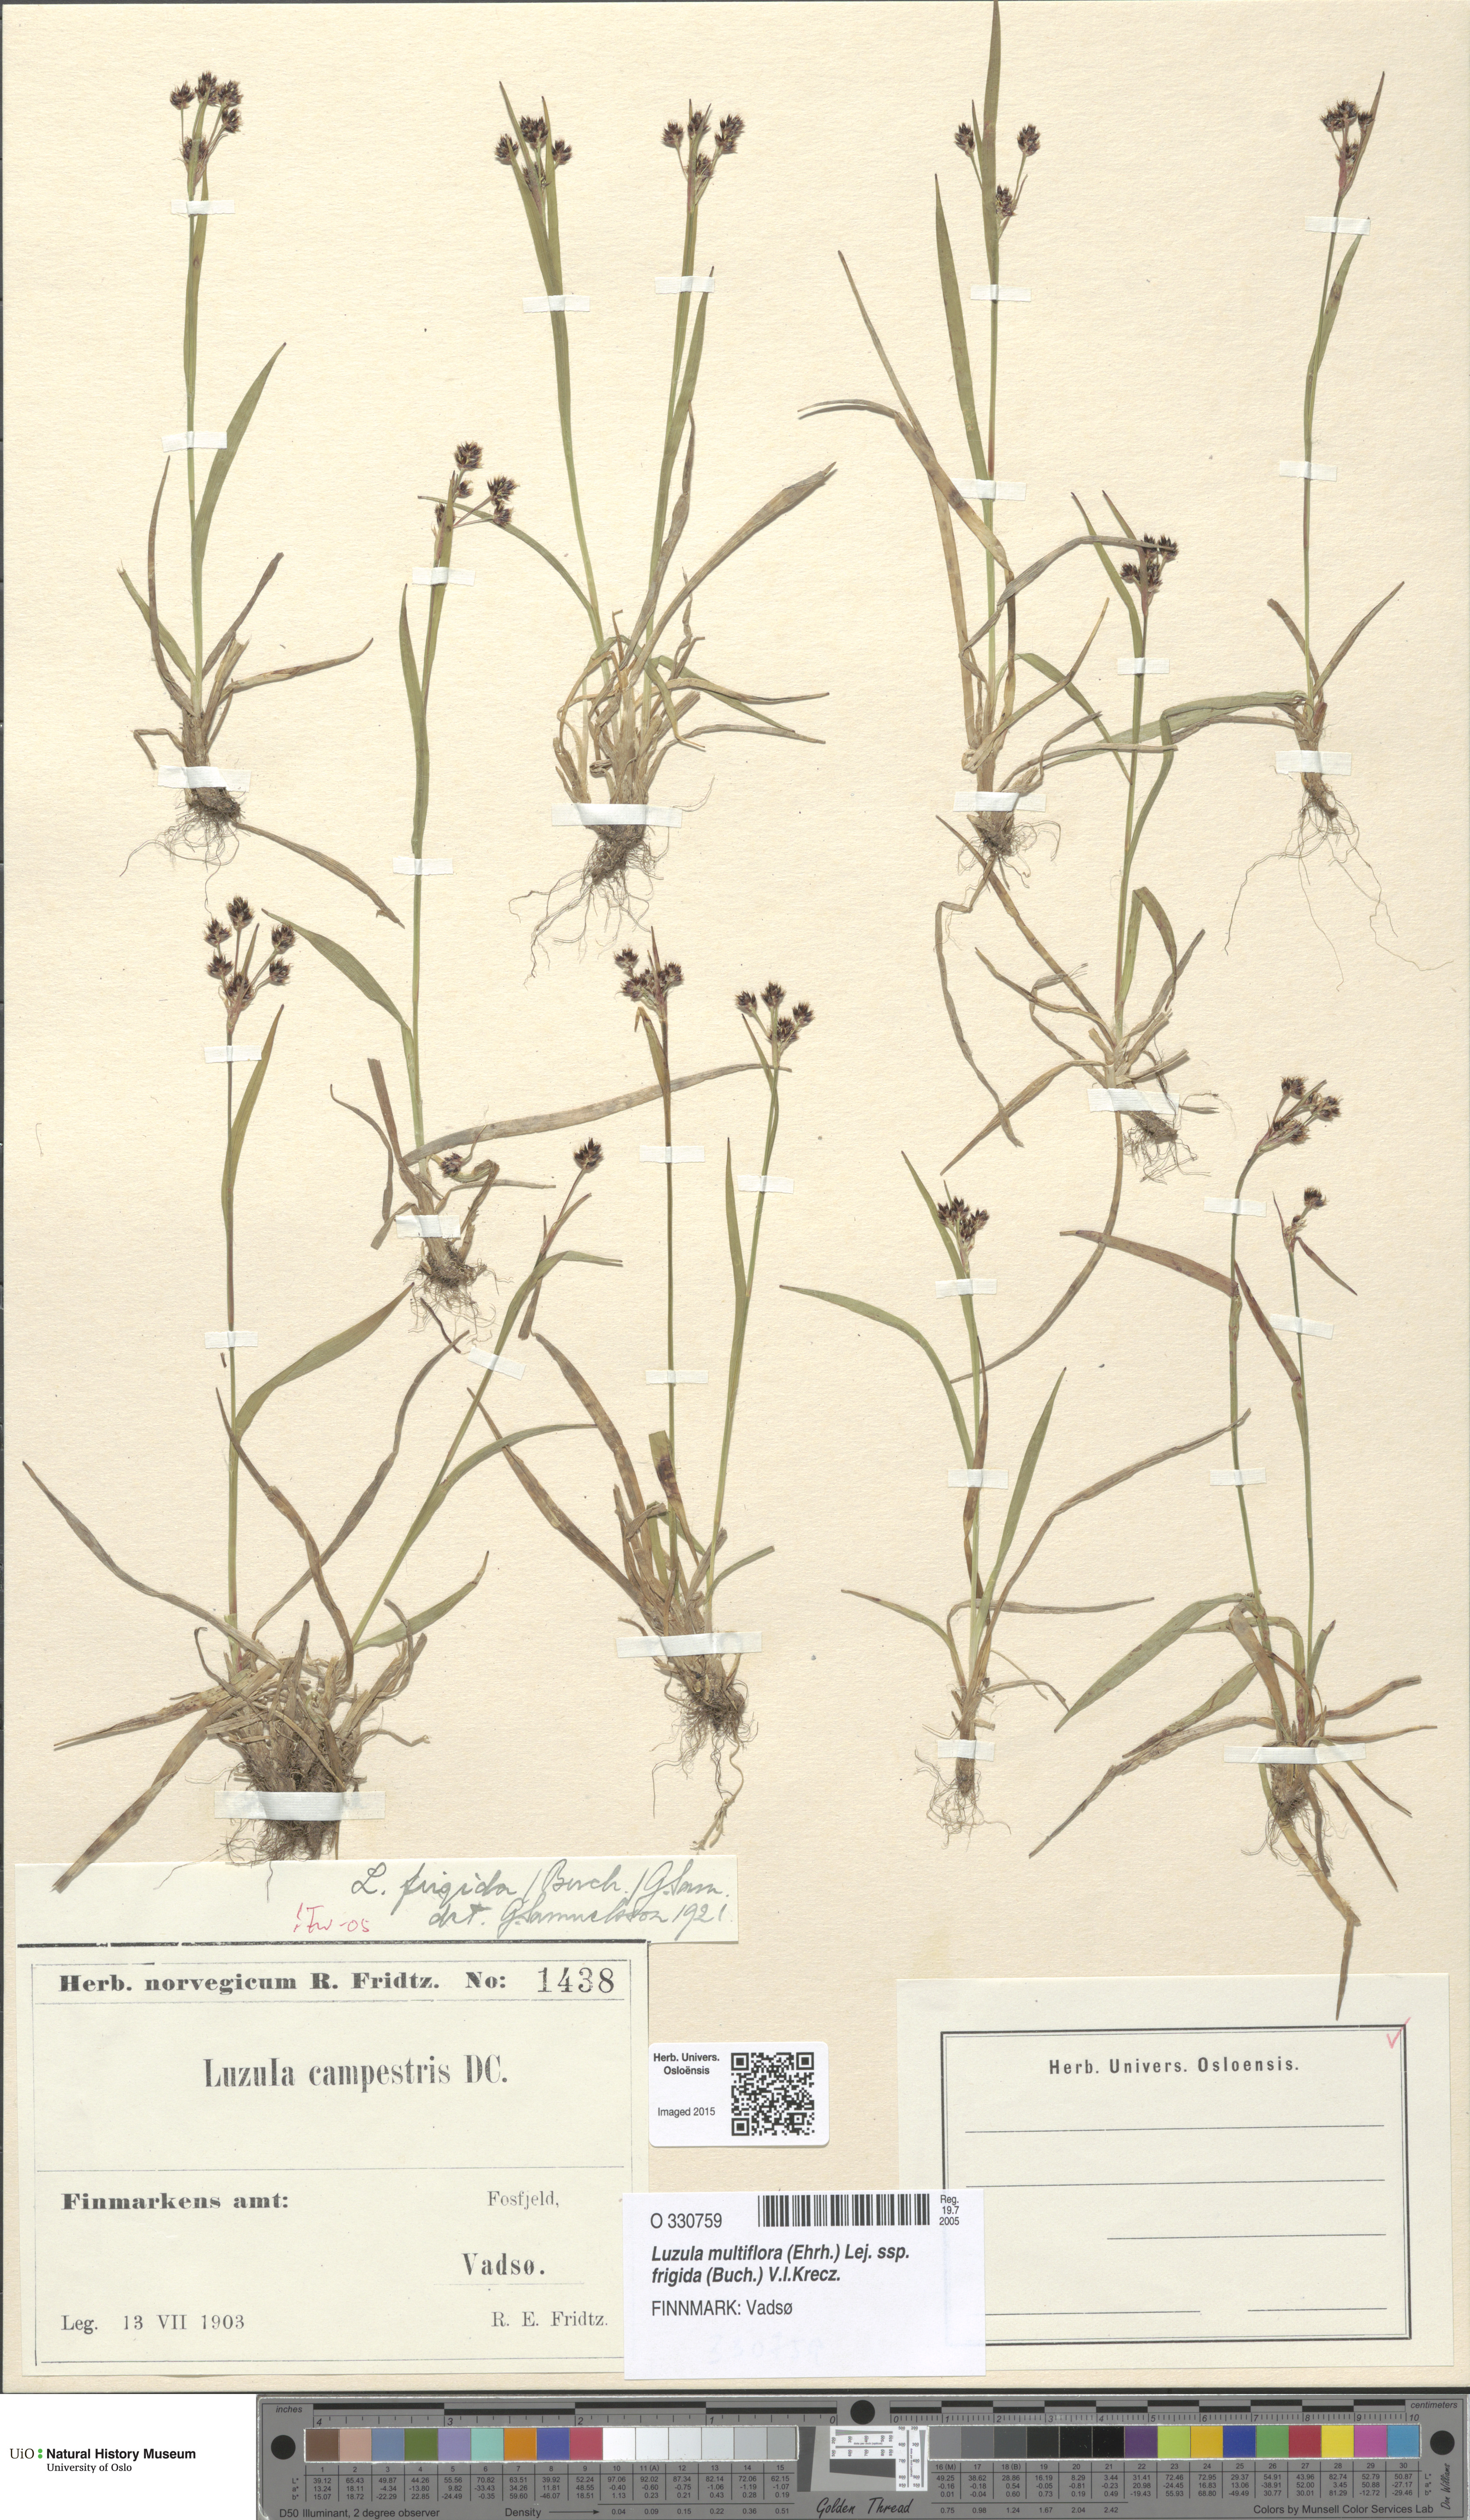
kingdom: Plantae
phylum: Tracheophyta
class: Liliopsida
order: Poales
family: Juncaceae
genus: Luzula
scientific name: Luzula multiflora
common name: Heath wood-rush
